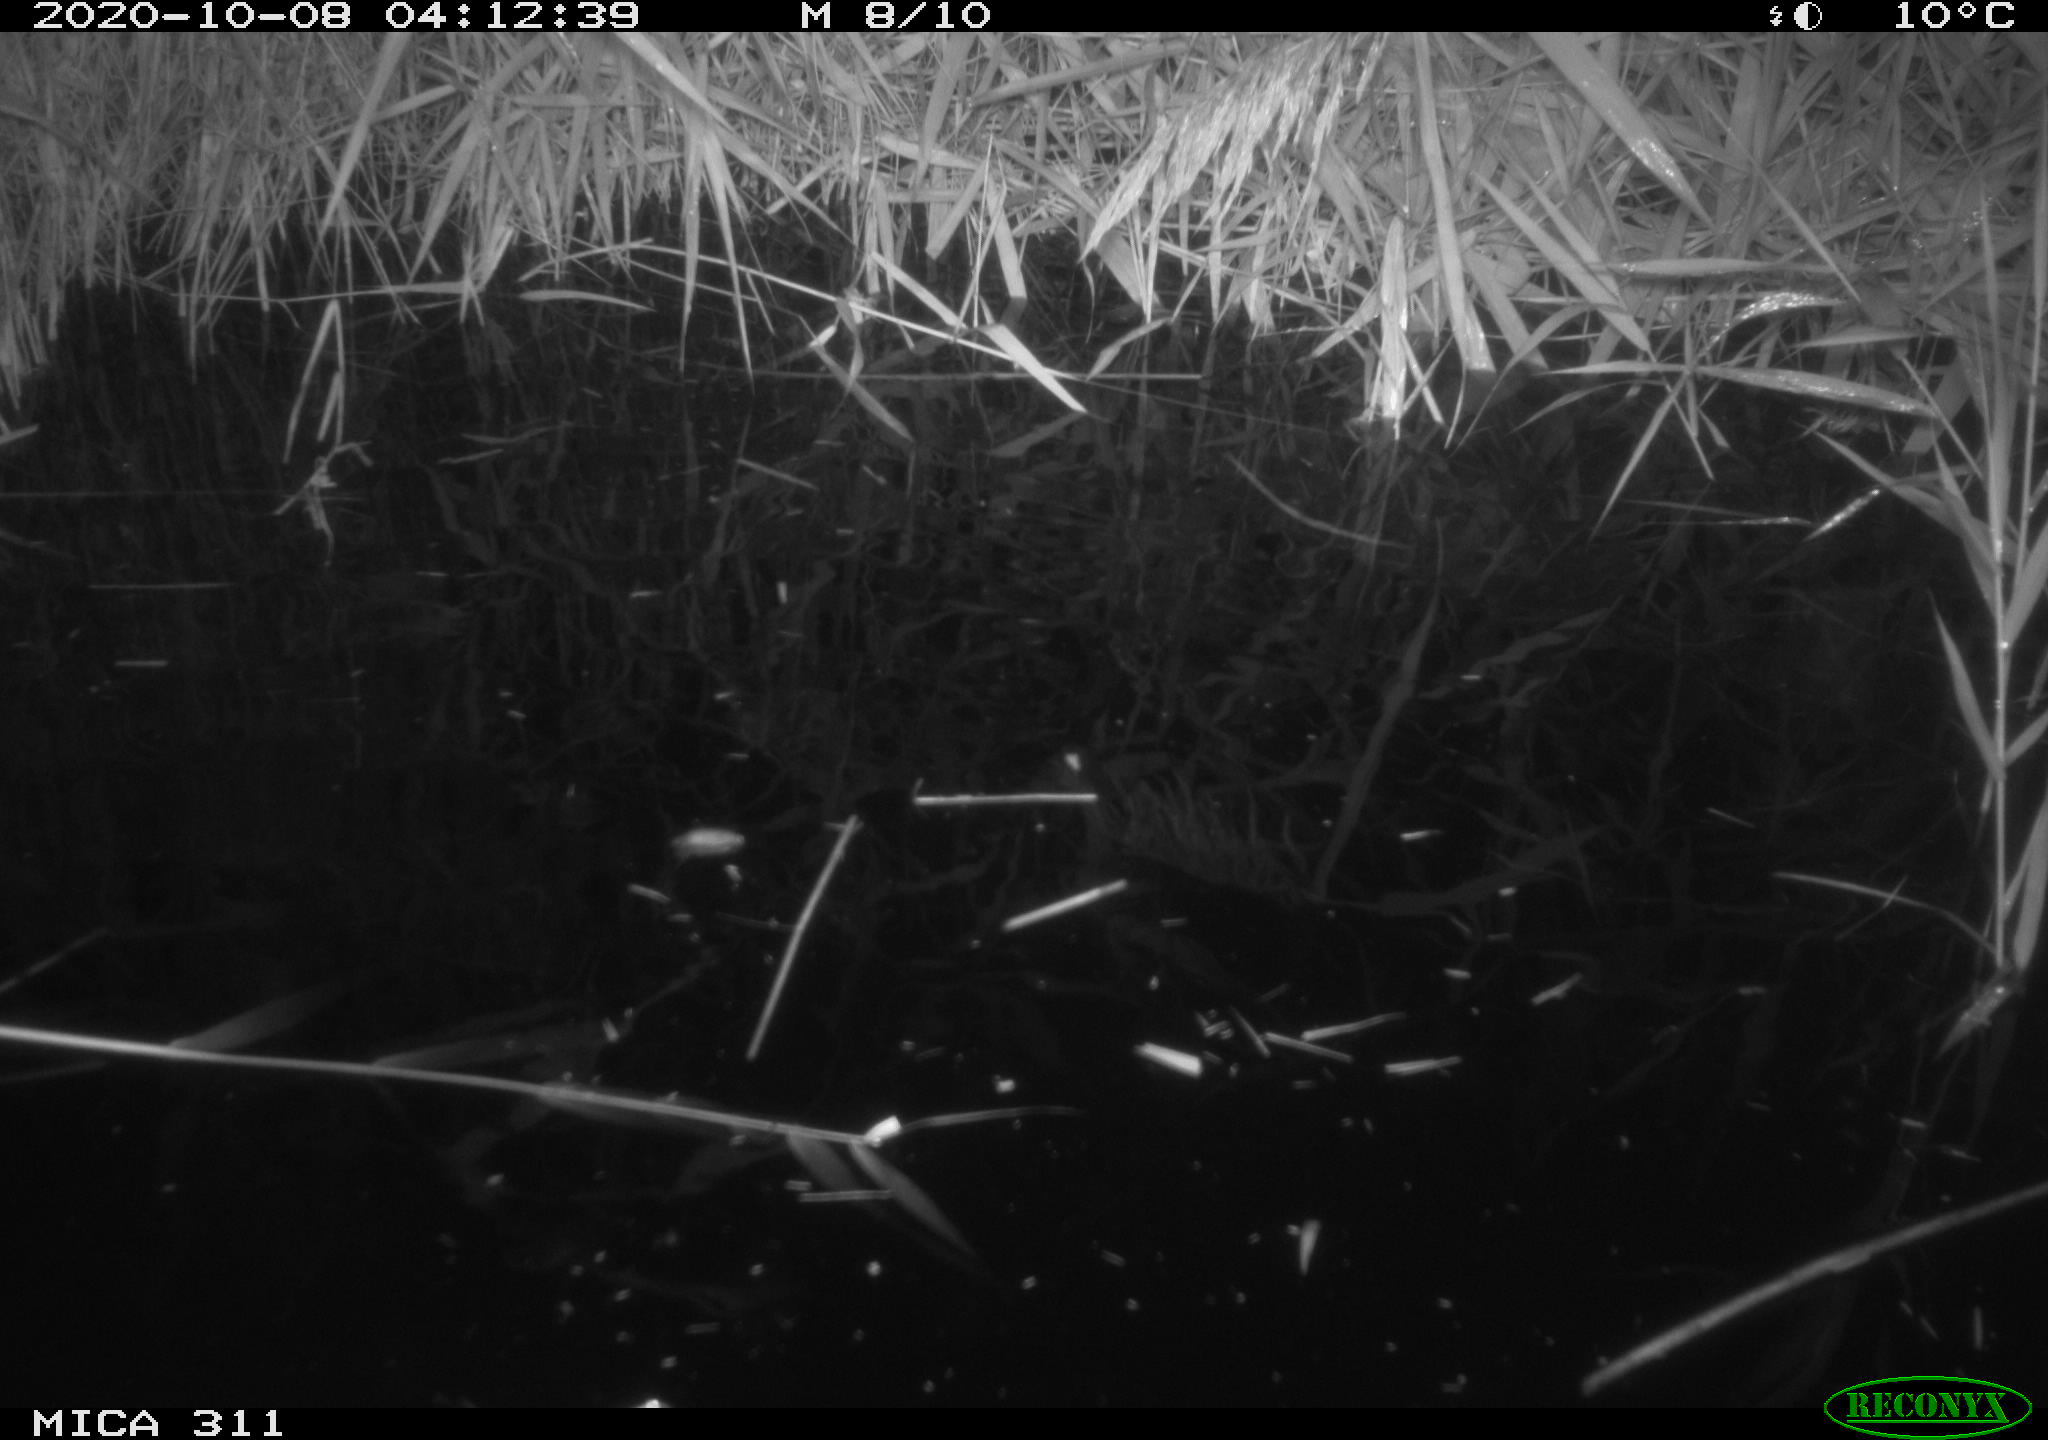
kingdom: Animalia
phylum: Chordata
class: Mammalia
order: Rodentia
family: Muridae
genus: Rattus
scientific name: Rattus norvegicus
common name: Brown rat
